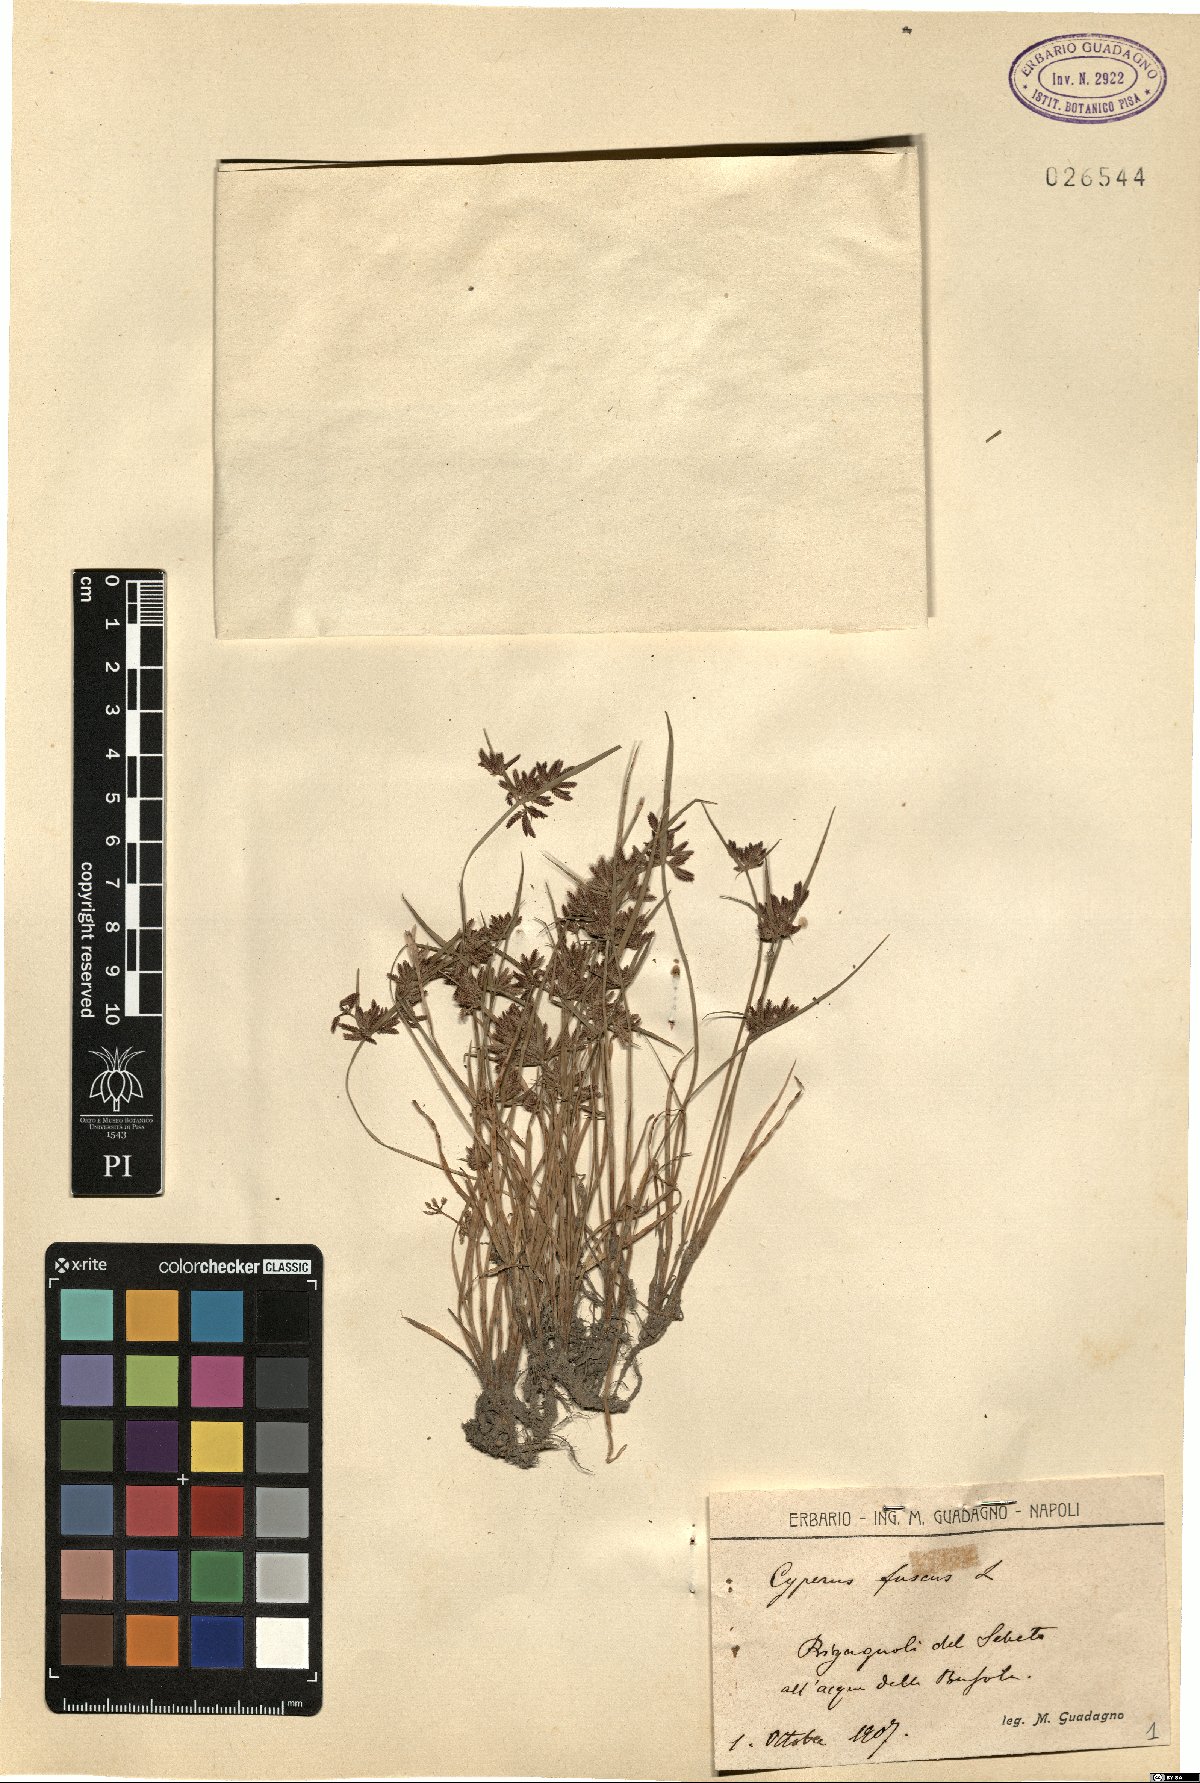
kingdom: Plantae
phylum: Tracheophyta
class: Liliopsida
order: Poales
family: Cyperaceae
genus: Cyperus
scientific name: Cyperus fuscus
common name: Brown galingale
